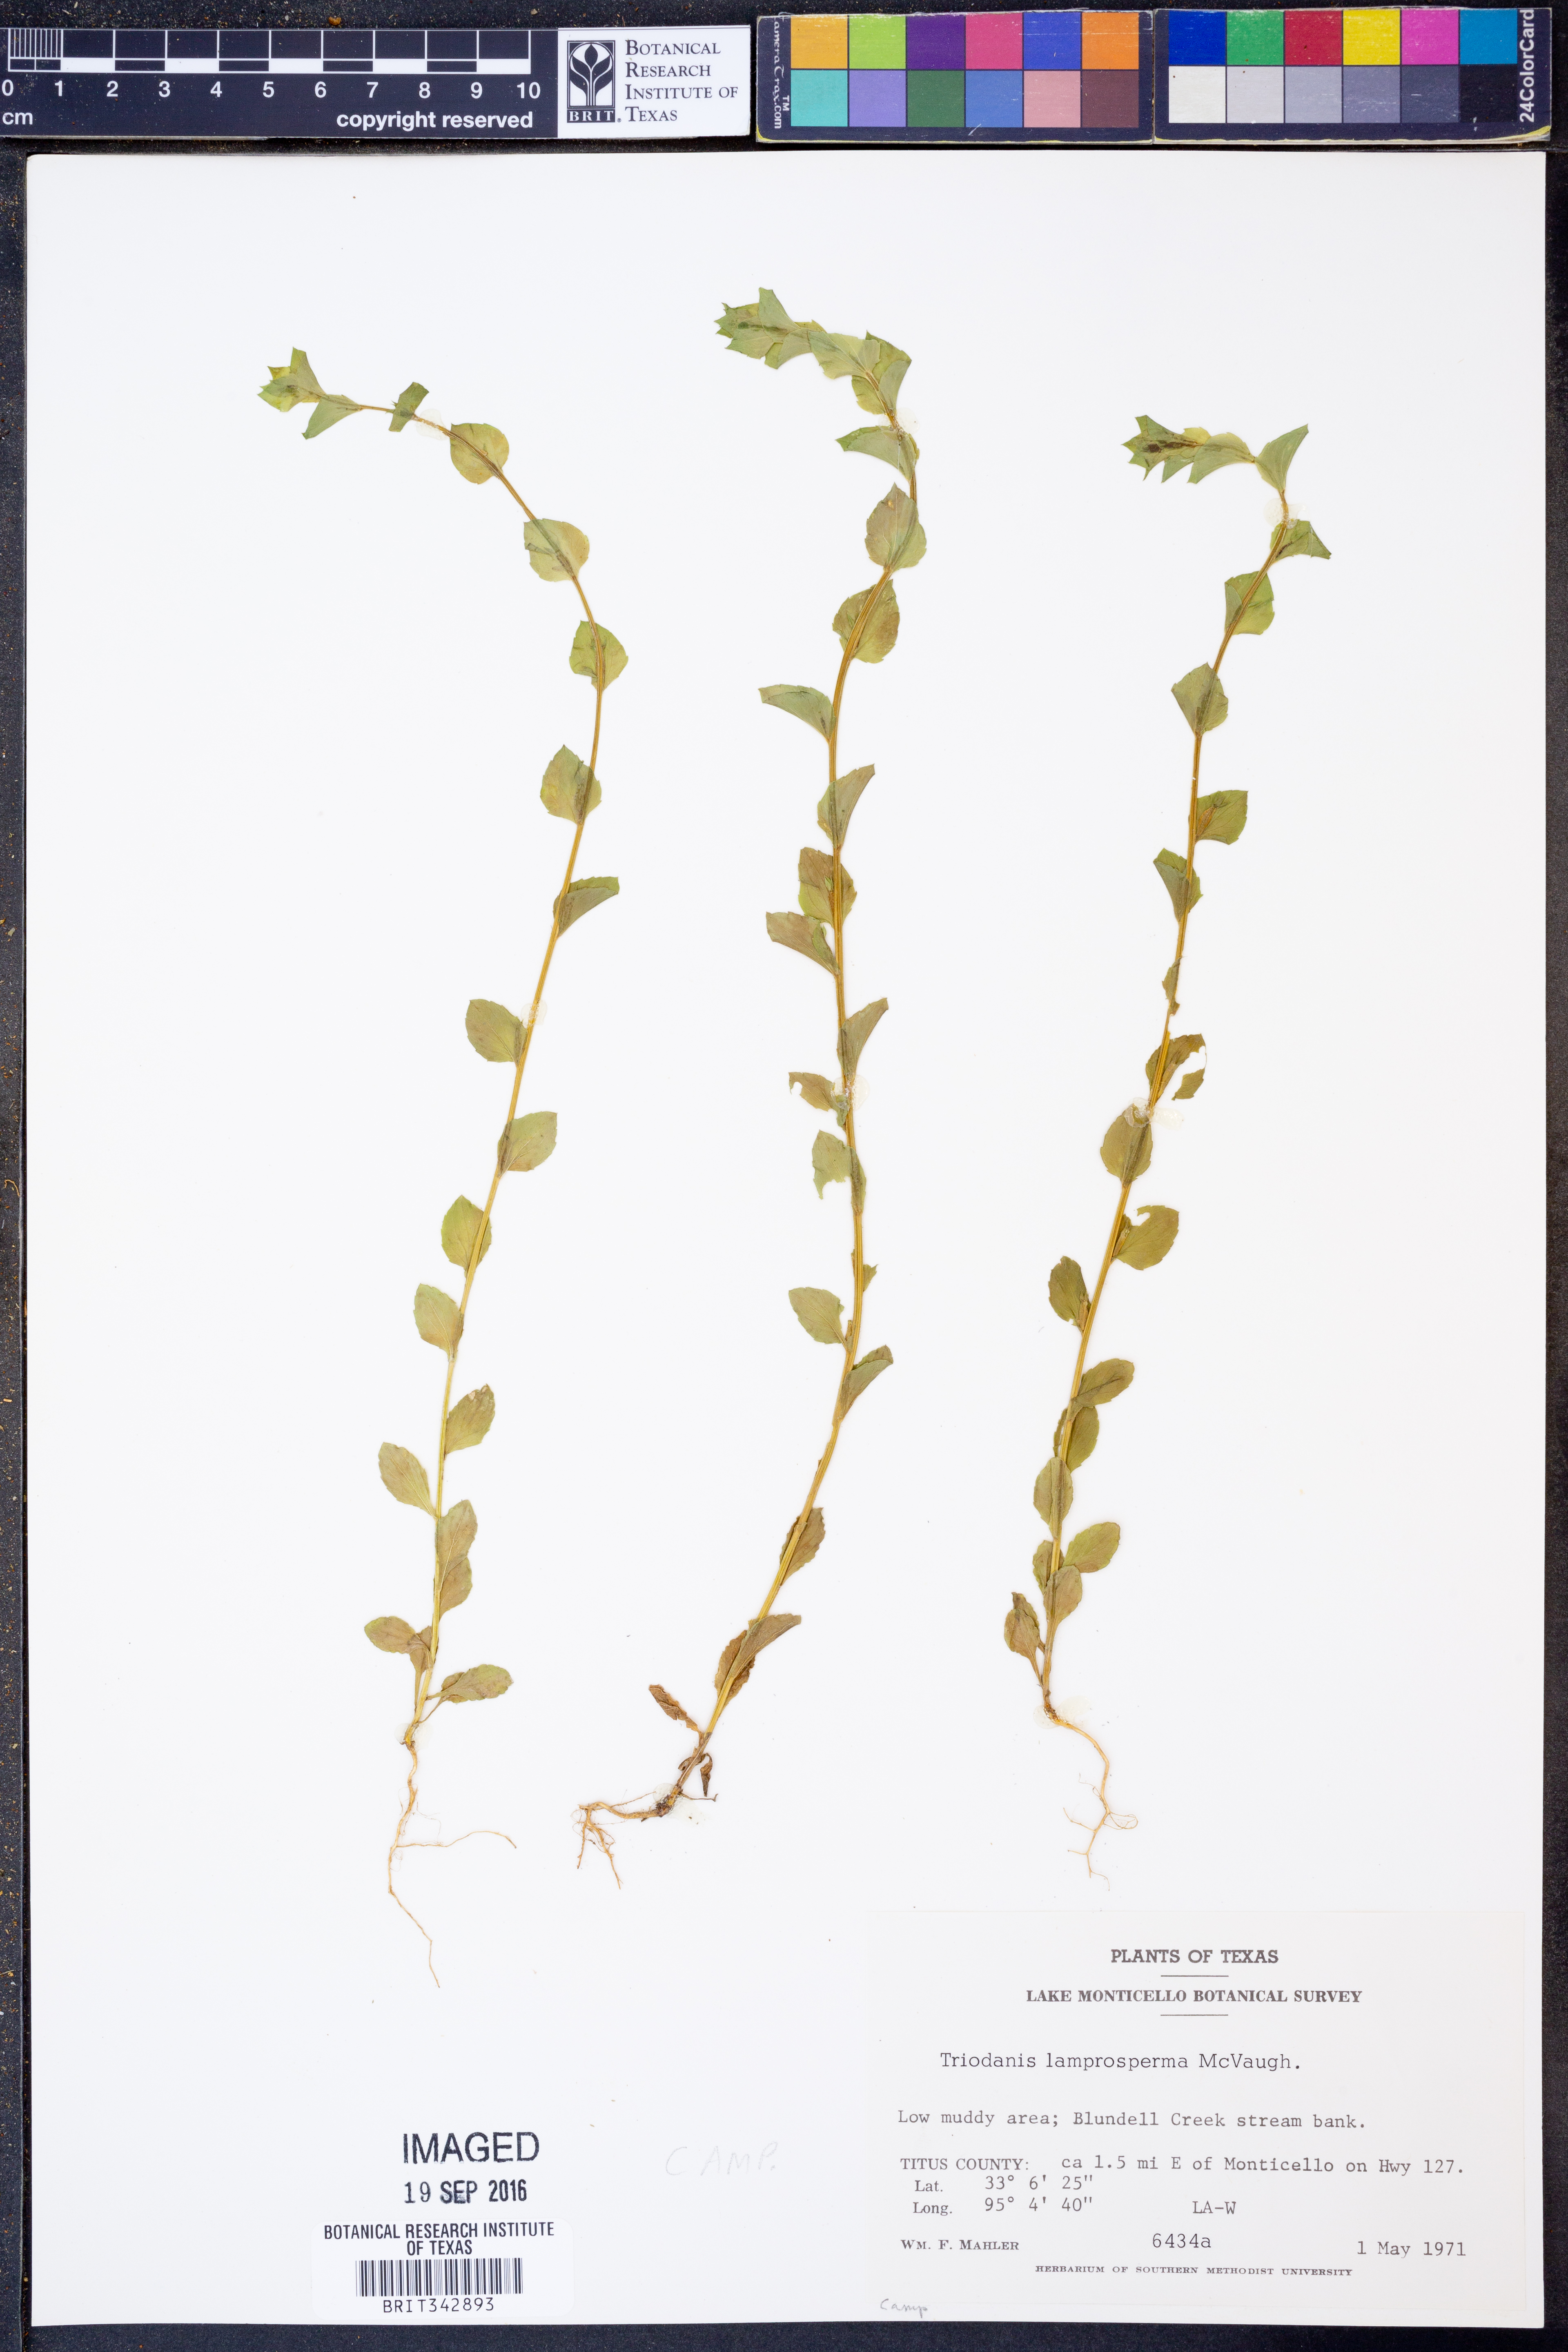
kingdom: Plantae
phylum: Tracheophyta
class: Magnoliopsida
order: Asterales
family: Campanulaceae
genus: Triodanis
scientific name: Triodanis lamprosperma
